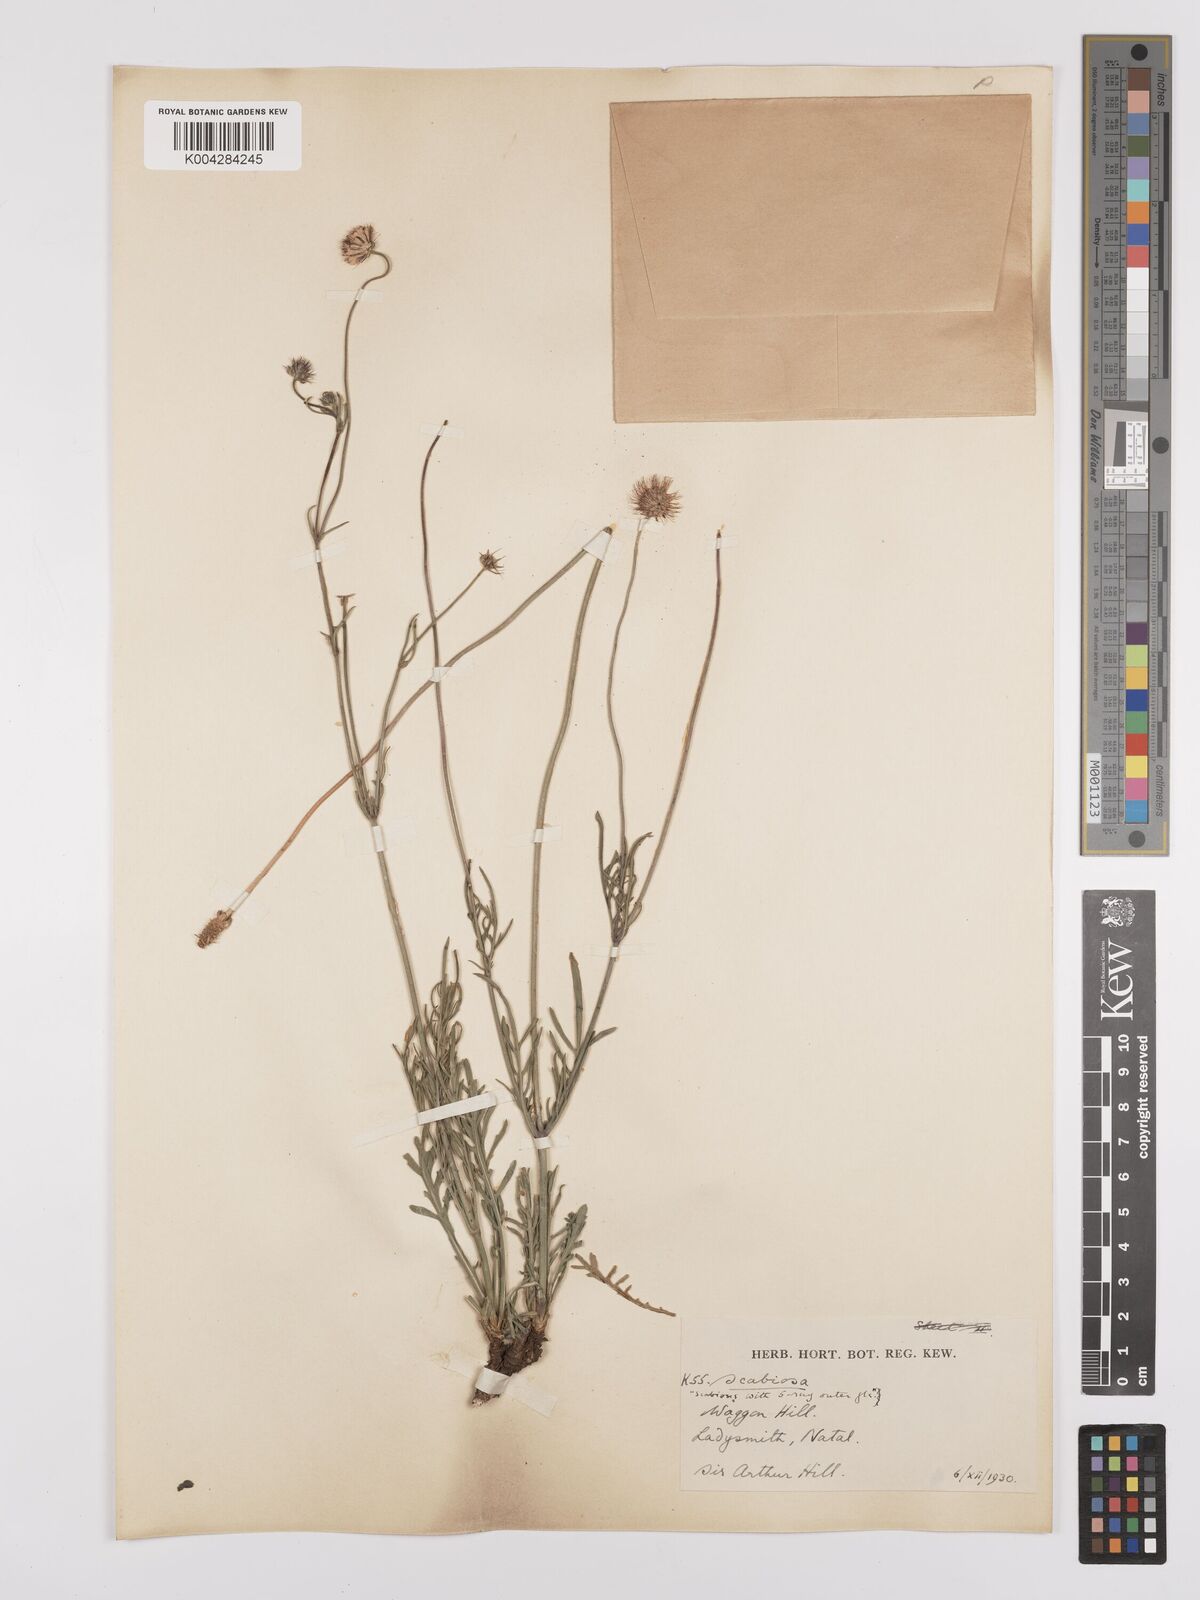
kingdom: Plantae
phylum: Tracheophyta
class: Magnoliopsida
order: Dipsacales
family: Caprifoliaceae
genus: Scabiosa
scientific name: Scabiosa columbaria
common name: Small scabious
